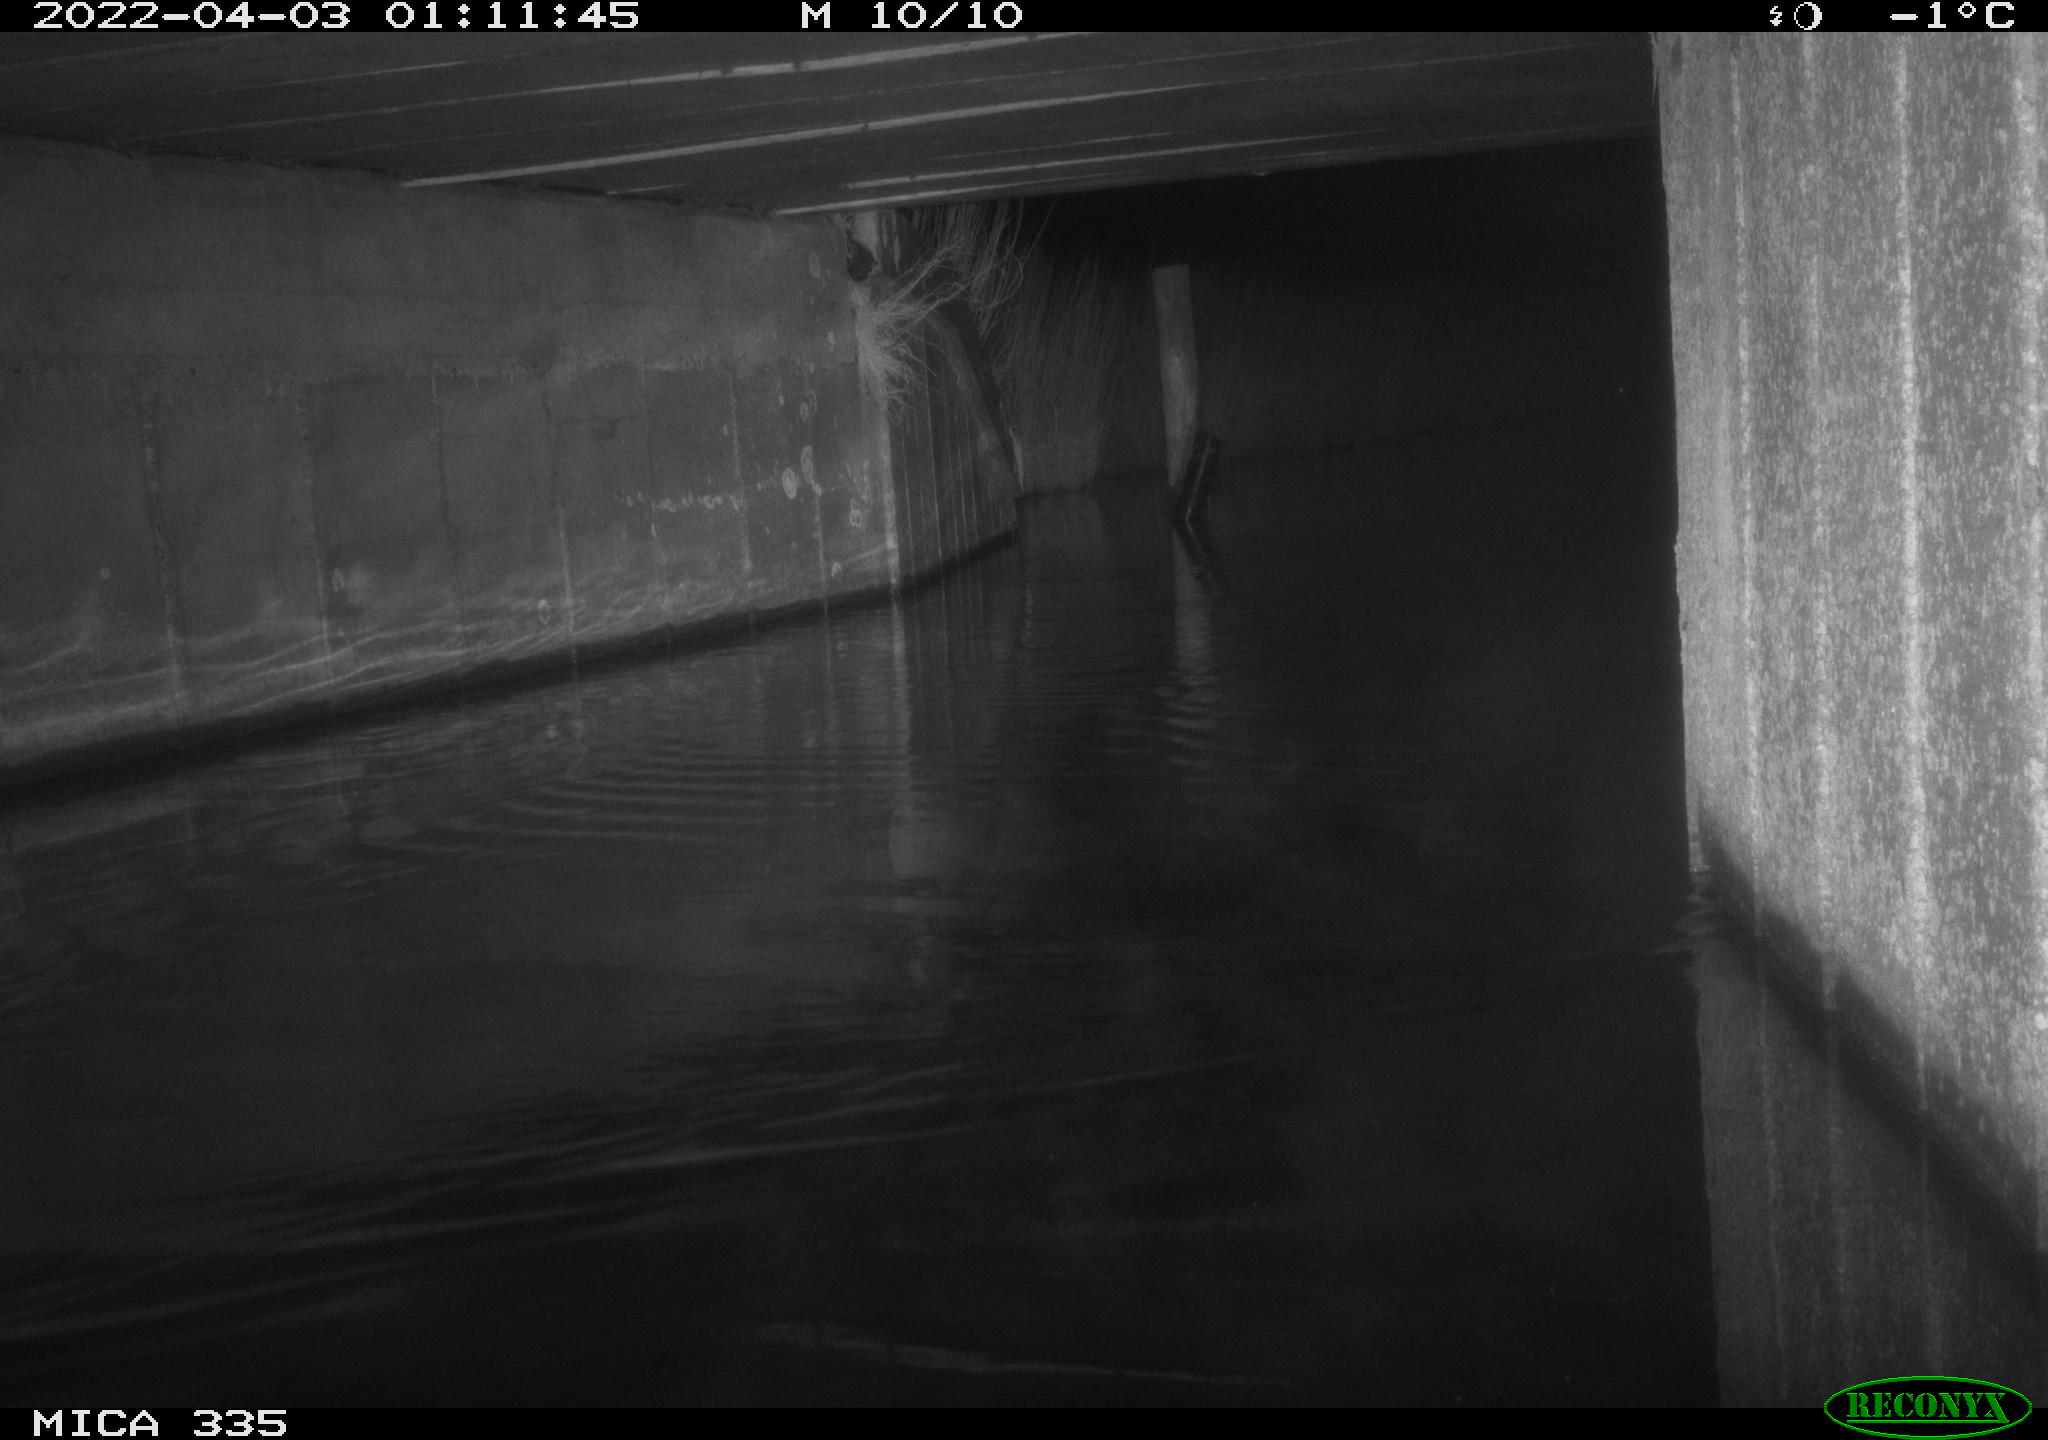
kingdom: Animalia
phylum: Chordata
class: Aves
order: Anseriformes
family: Anatidae
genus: Anas
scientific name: Anas platyrhynchos
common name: Mallard
